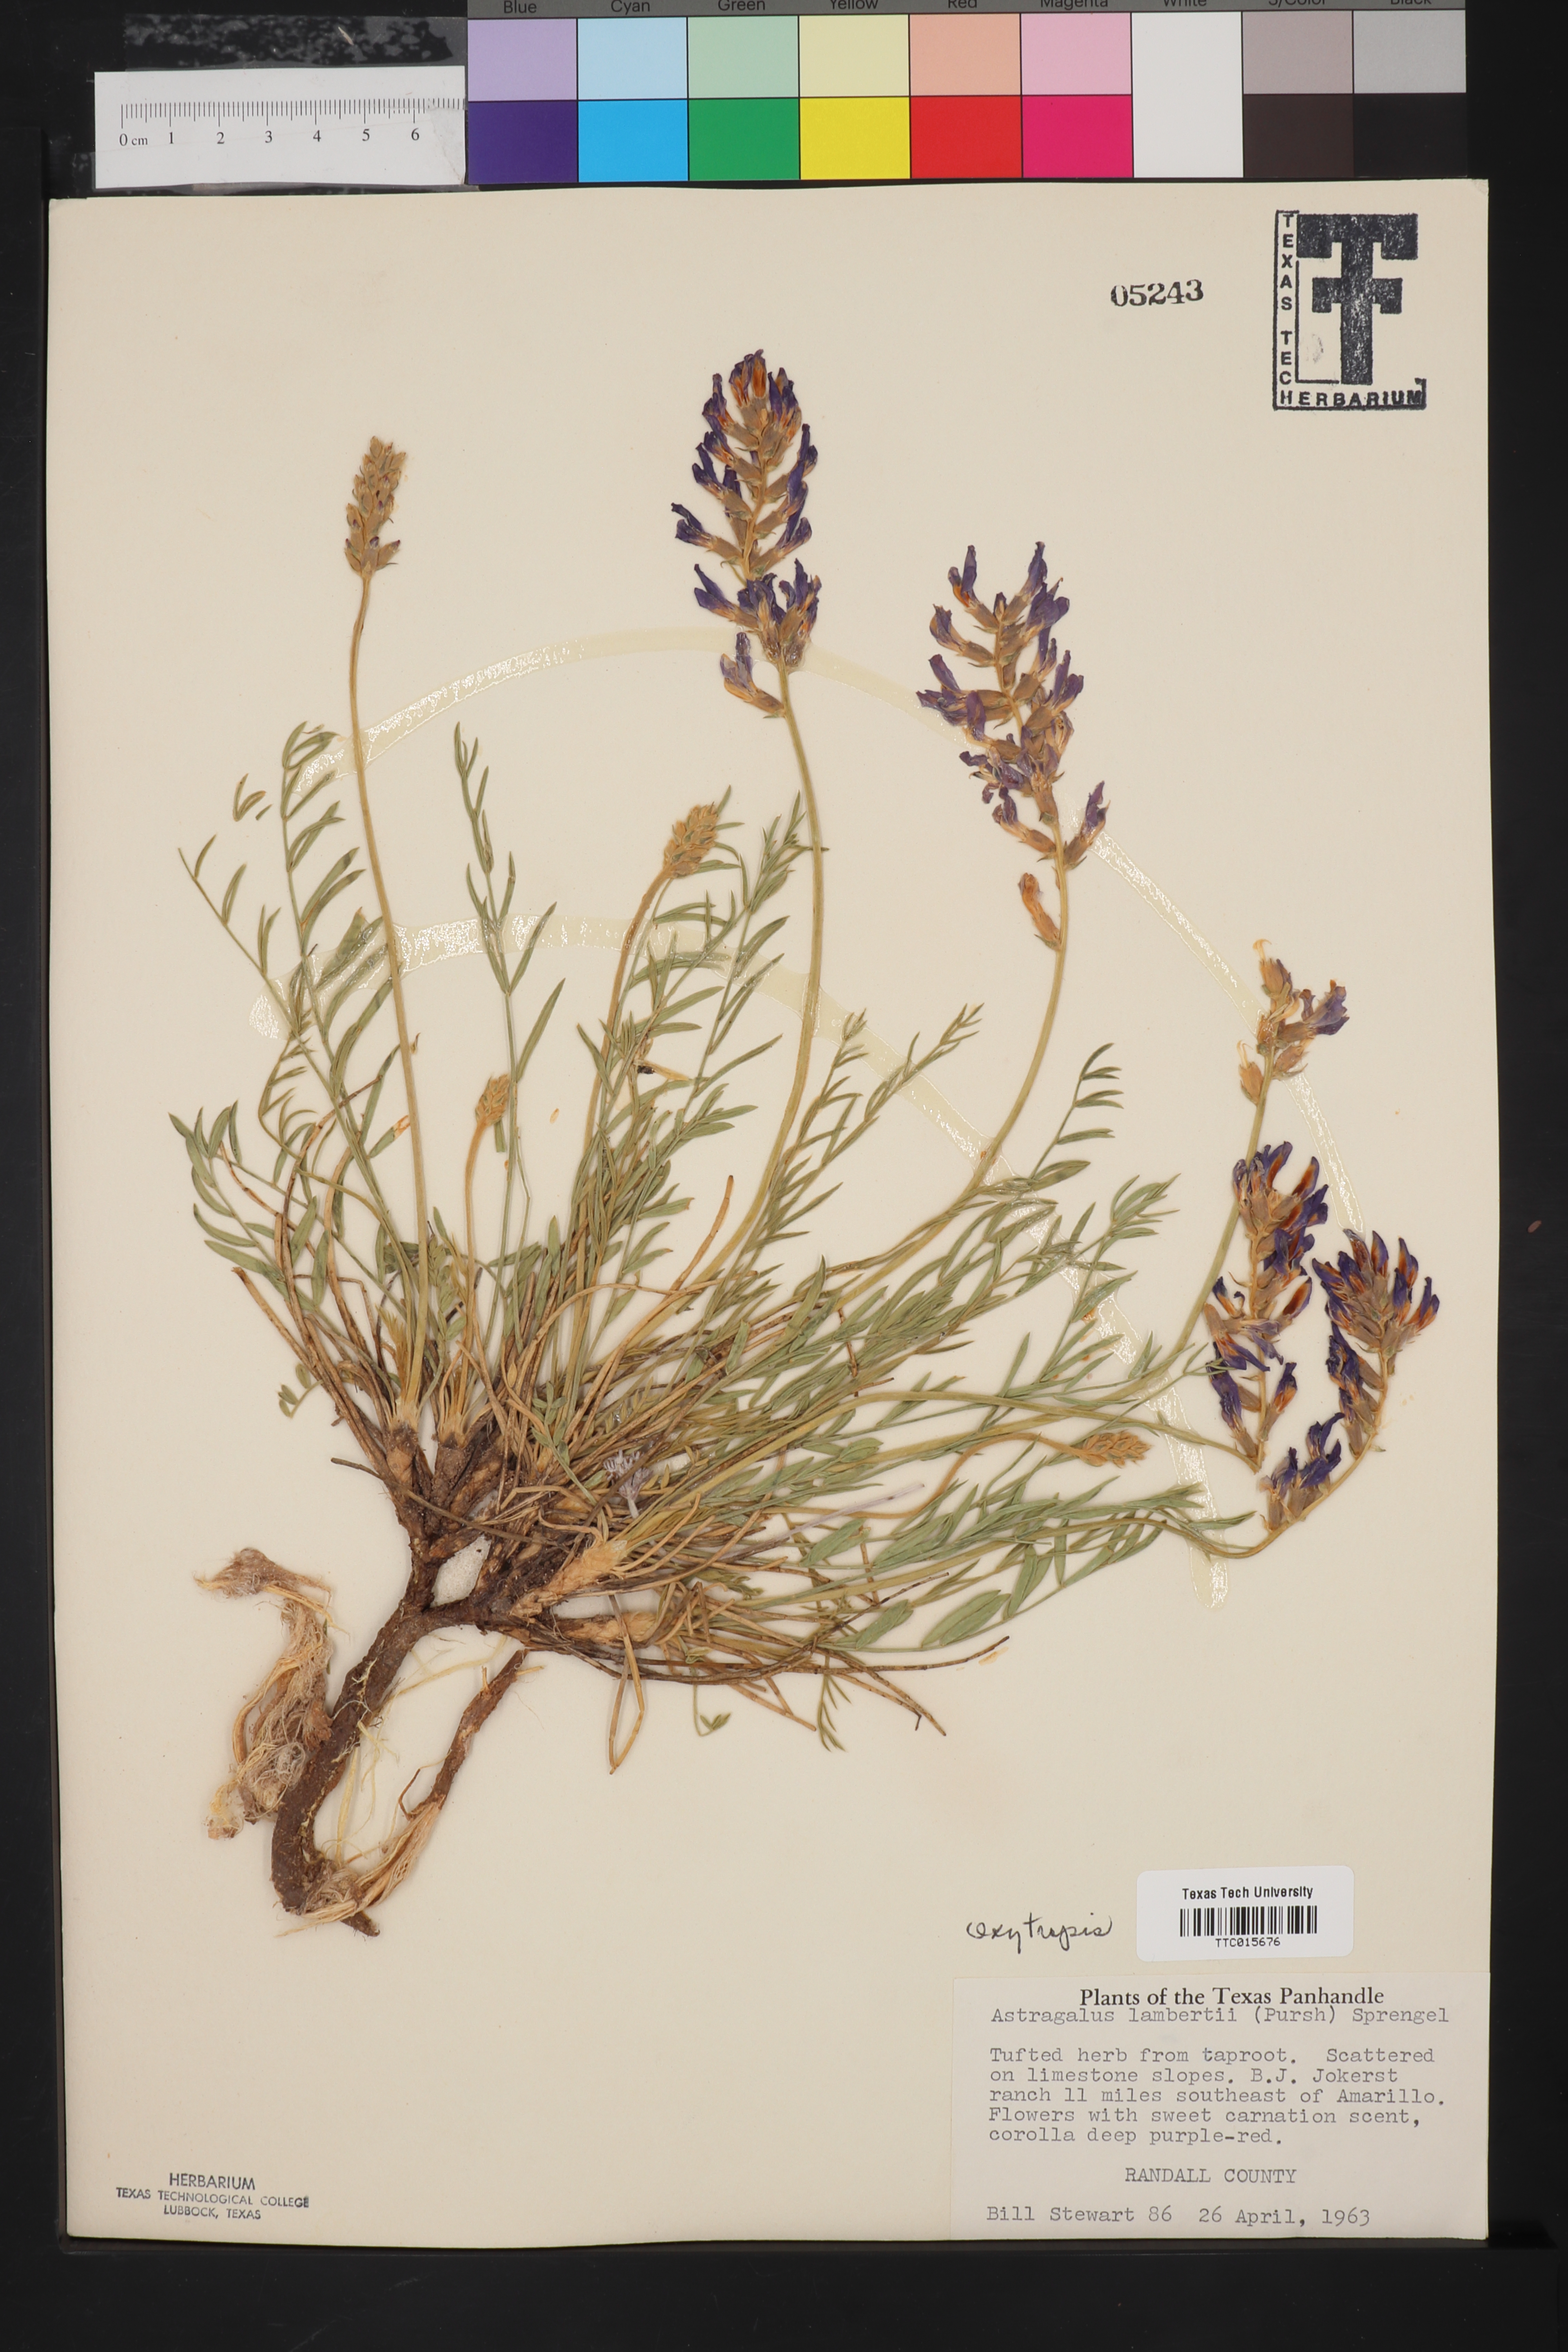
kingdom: Plantae
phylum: Tracheophyta
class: Magnoliopsida
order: Fabales
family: Fabaceae
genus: Oxytropis
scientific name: Oxytropis lambertii
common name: Purple locoweed
